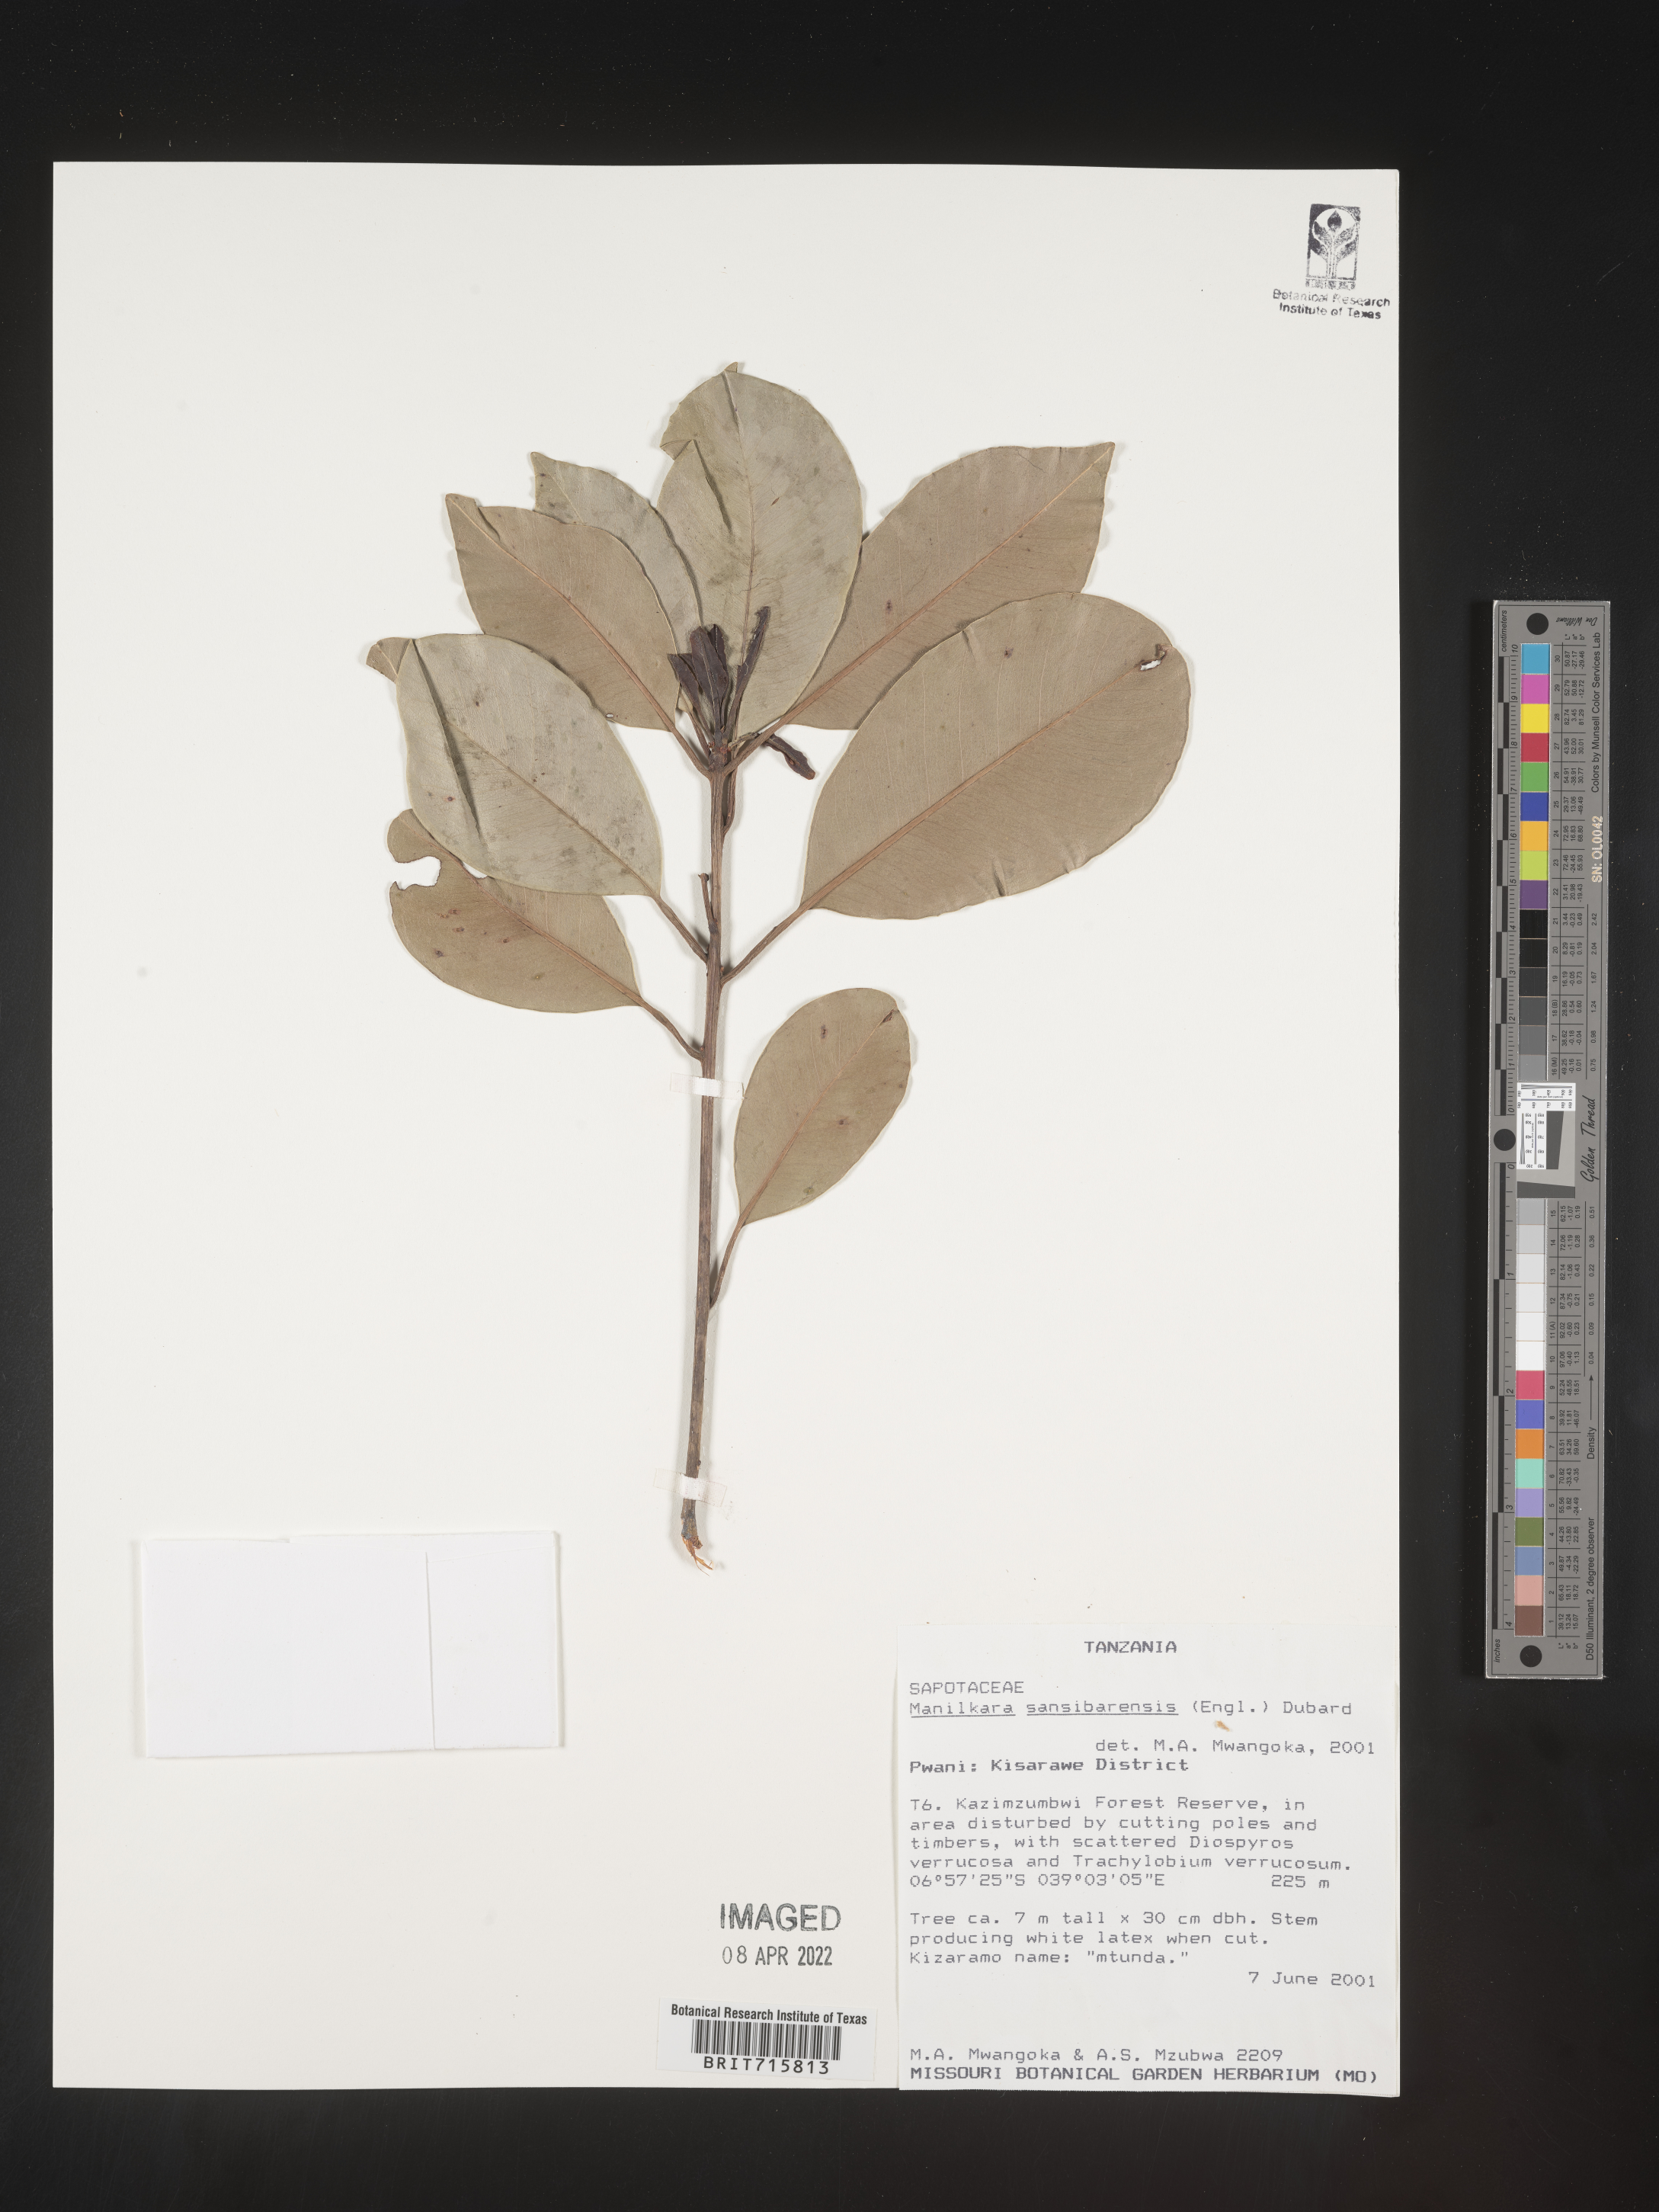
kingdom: Plantae
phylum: Tracheophyta
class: Magnoliopsida
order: Ericales
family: Sapotaceae
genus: Manilkara
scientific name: Manilkara
